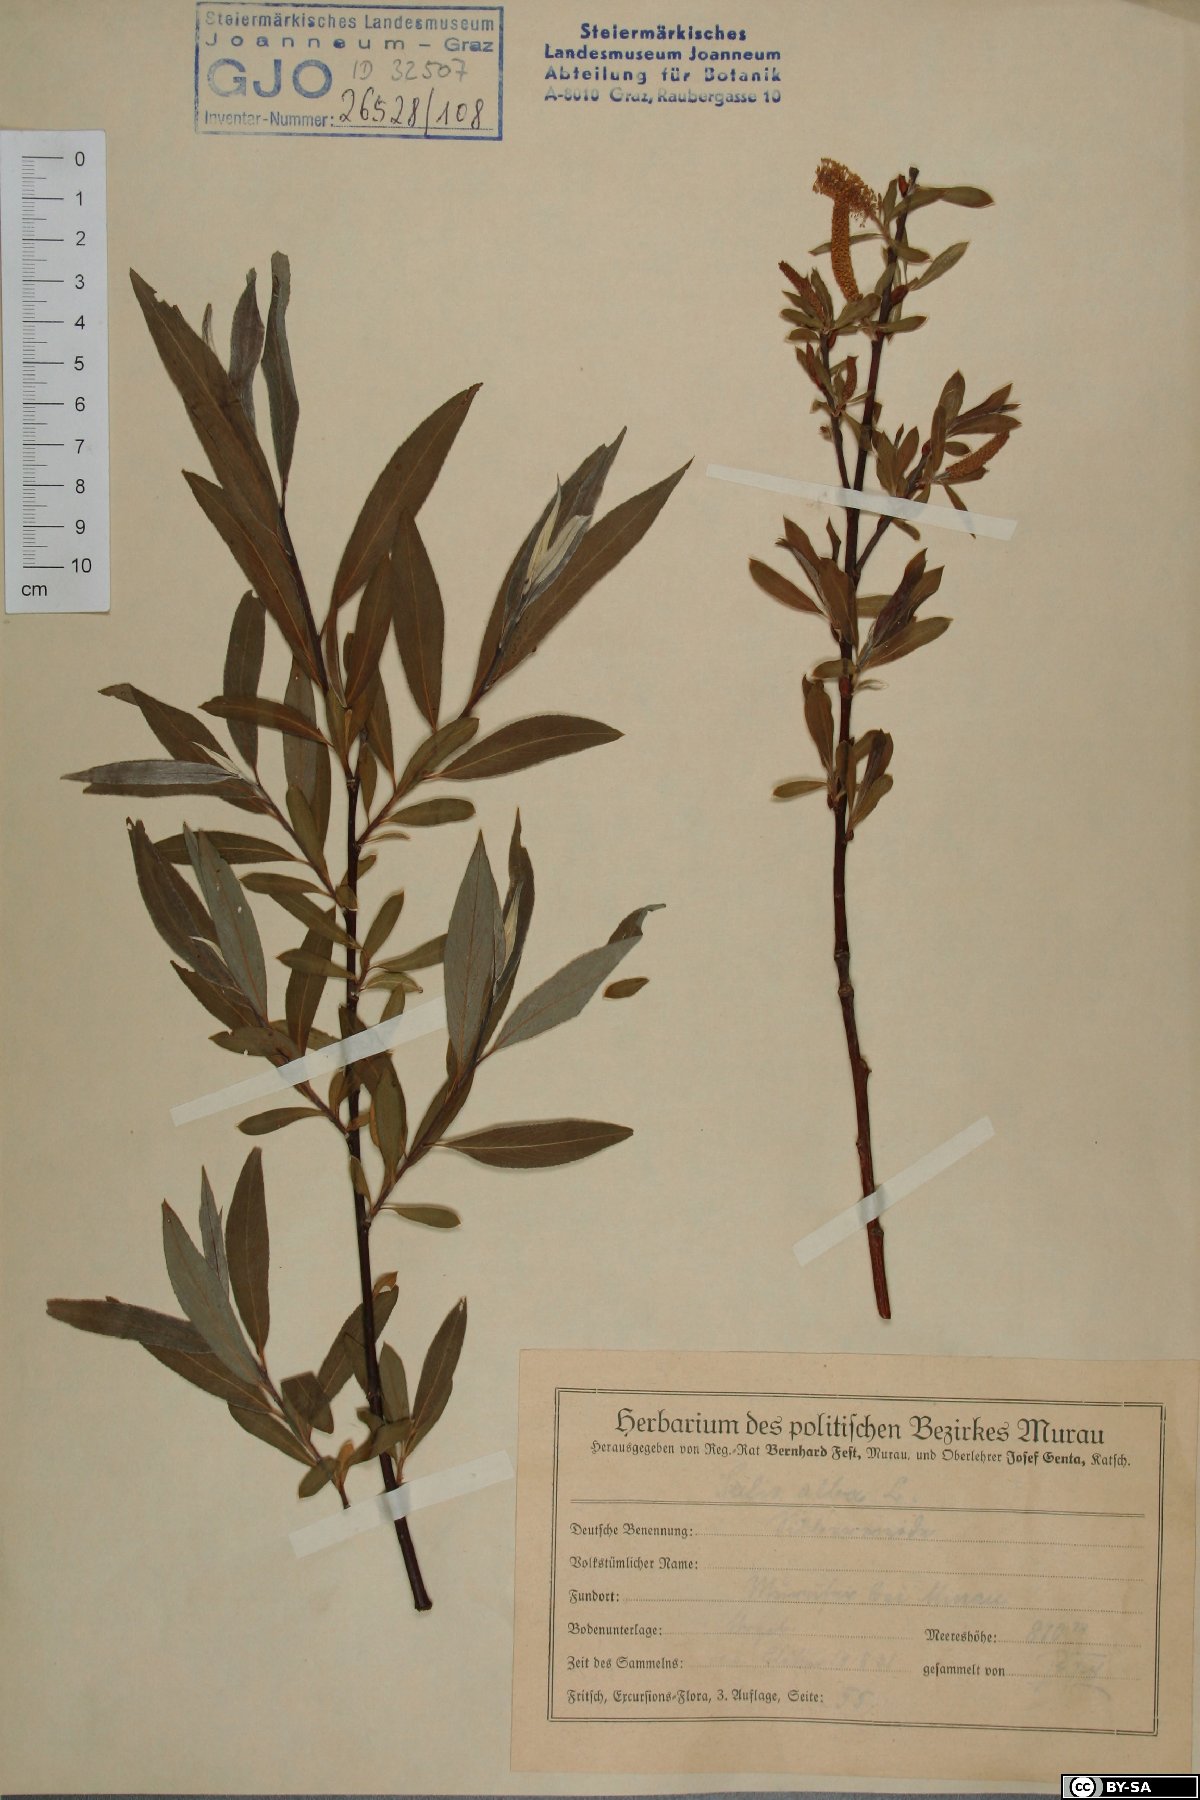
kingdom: Plantae
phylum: Tracheophyta
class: Magnoliopsida
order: Malpighiales
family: Salicaceae
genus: Salix
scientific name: Salix alba
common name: White willow
